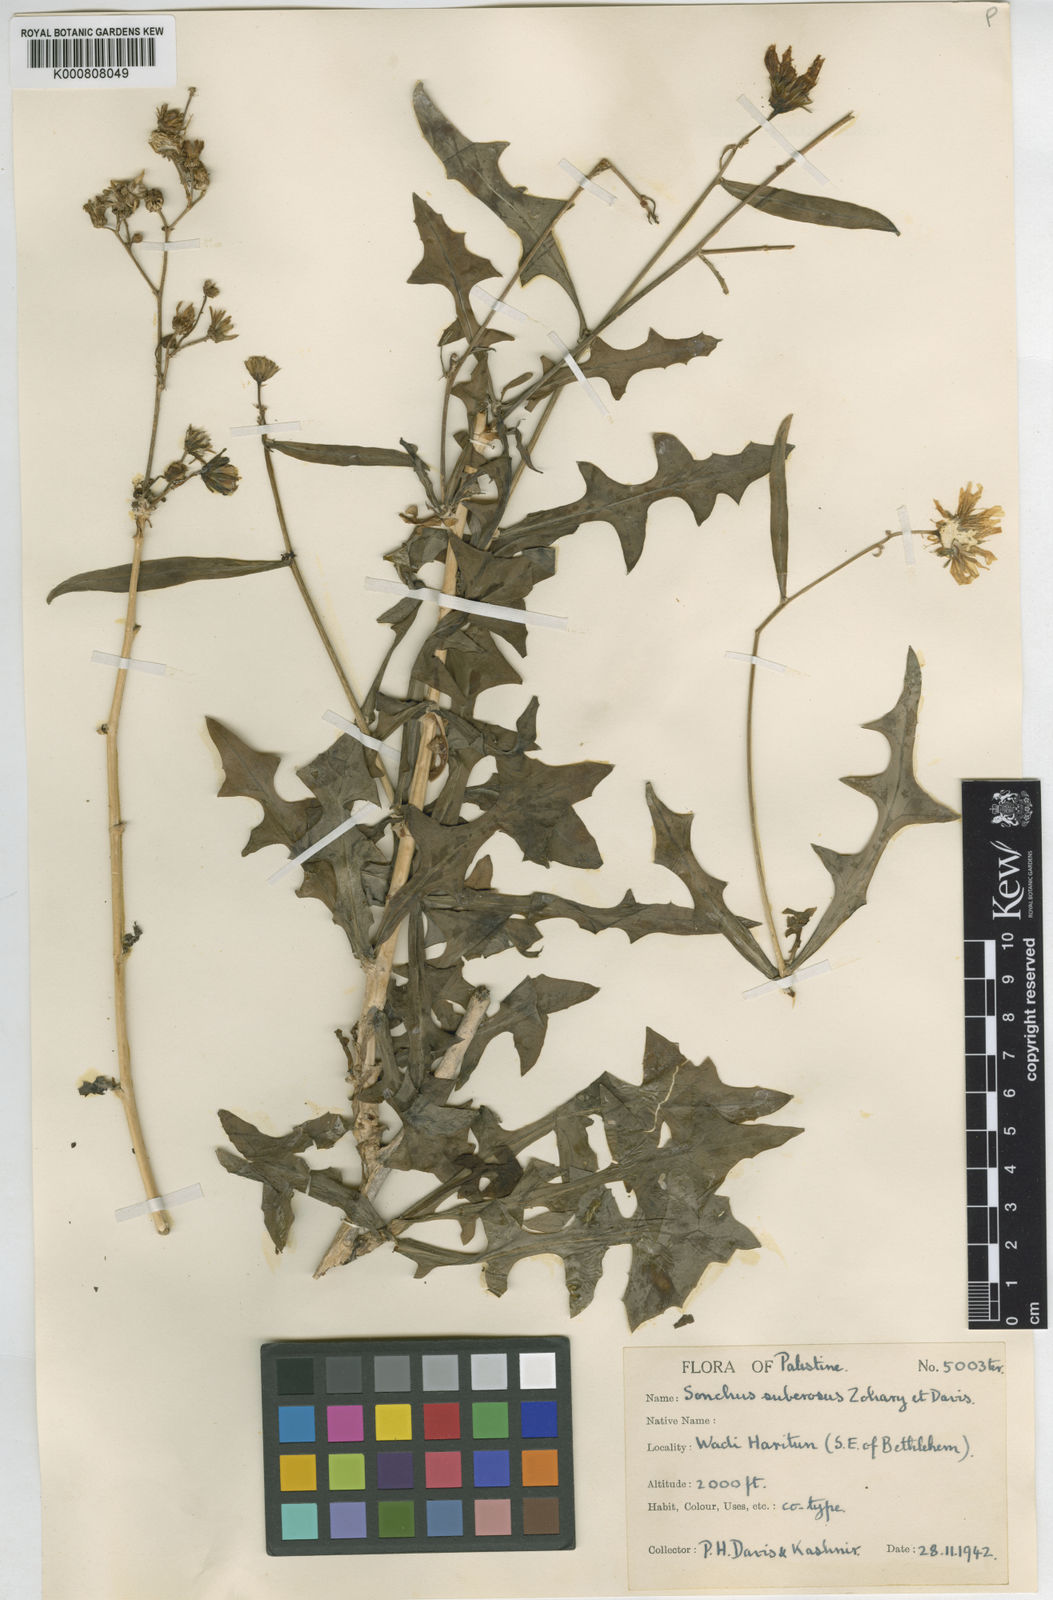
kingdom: Plantae
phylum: Tracheophyta
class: Magnoliopsida
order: Asterales
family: Asteraceae
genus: Sonchus
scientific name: Sonchus suberosus
